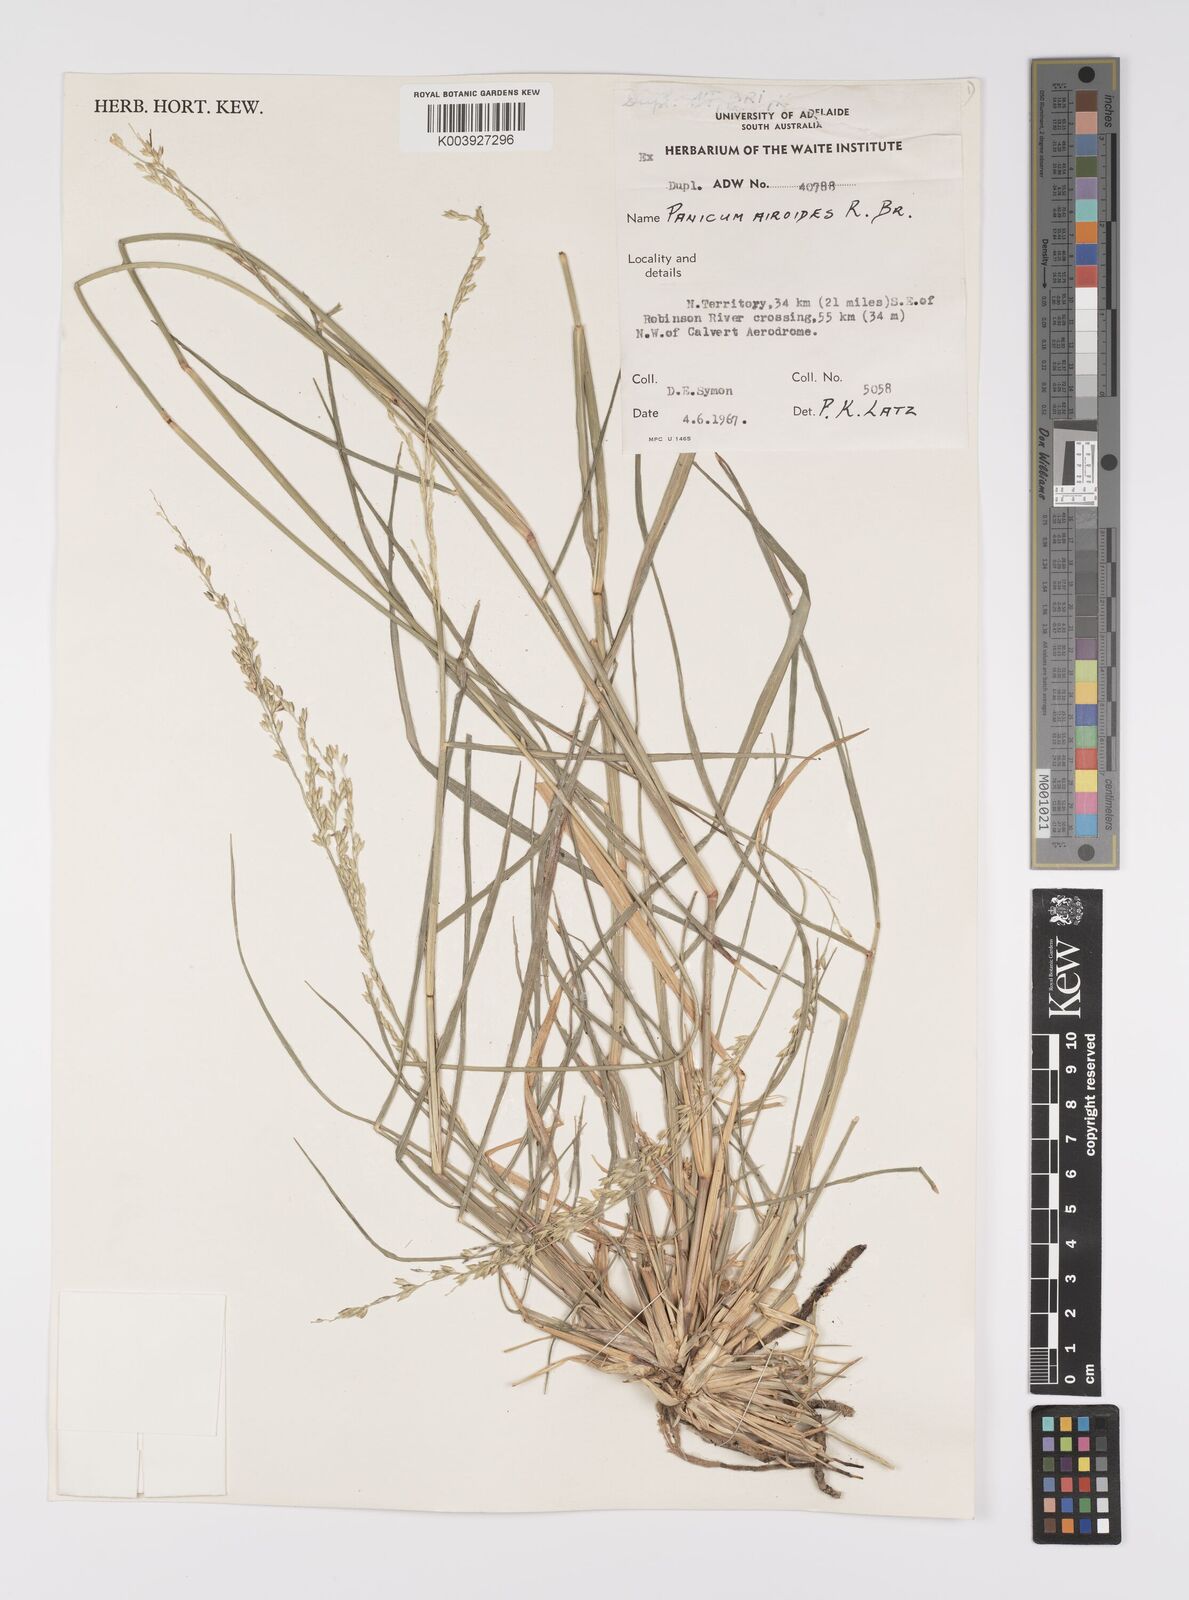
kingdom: Plantae
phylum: Tracheophyta
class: Liliopsida
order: Poales
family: Poaceae
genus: Whiteochloa
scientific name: Whiteochloa airoides
